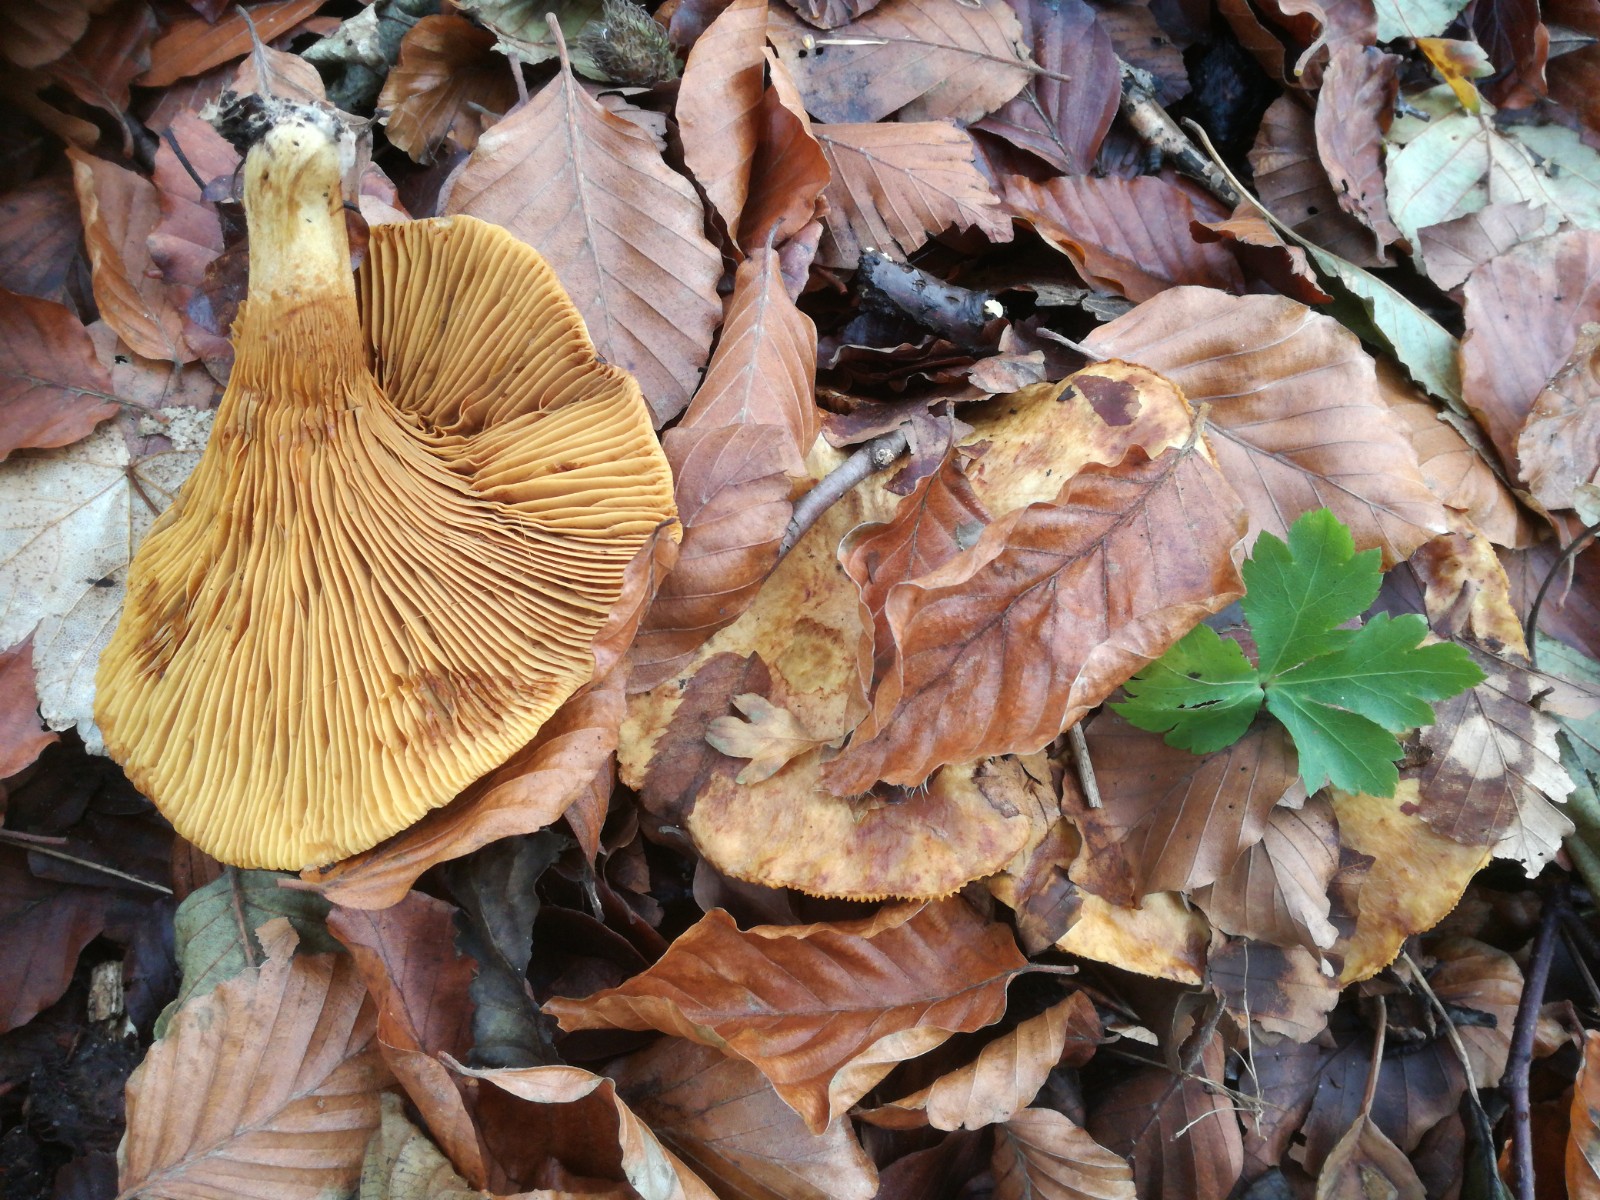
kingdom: Fungi
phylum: Basidiomycota
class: Agaricomycetes
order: Boletales
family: Paxillaceae
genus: Paxillus
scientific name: Paxillus rubicundulus
